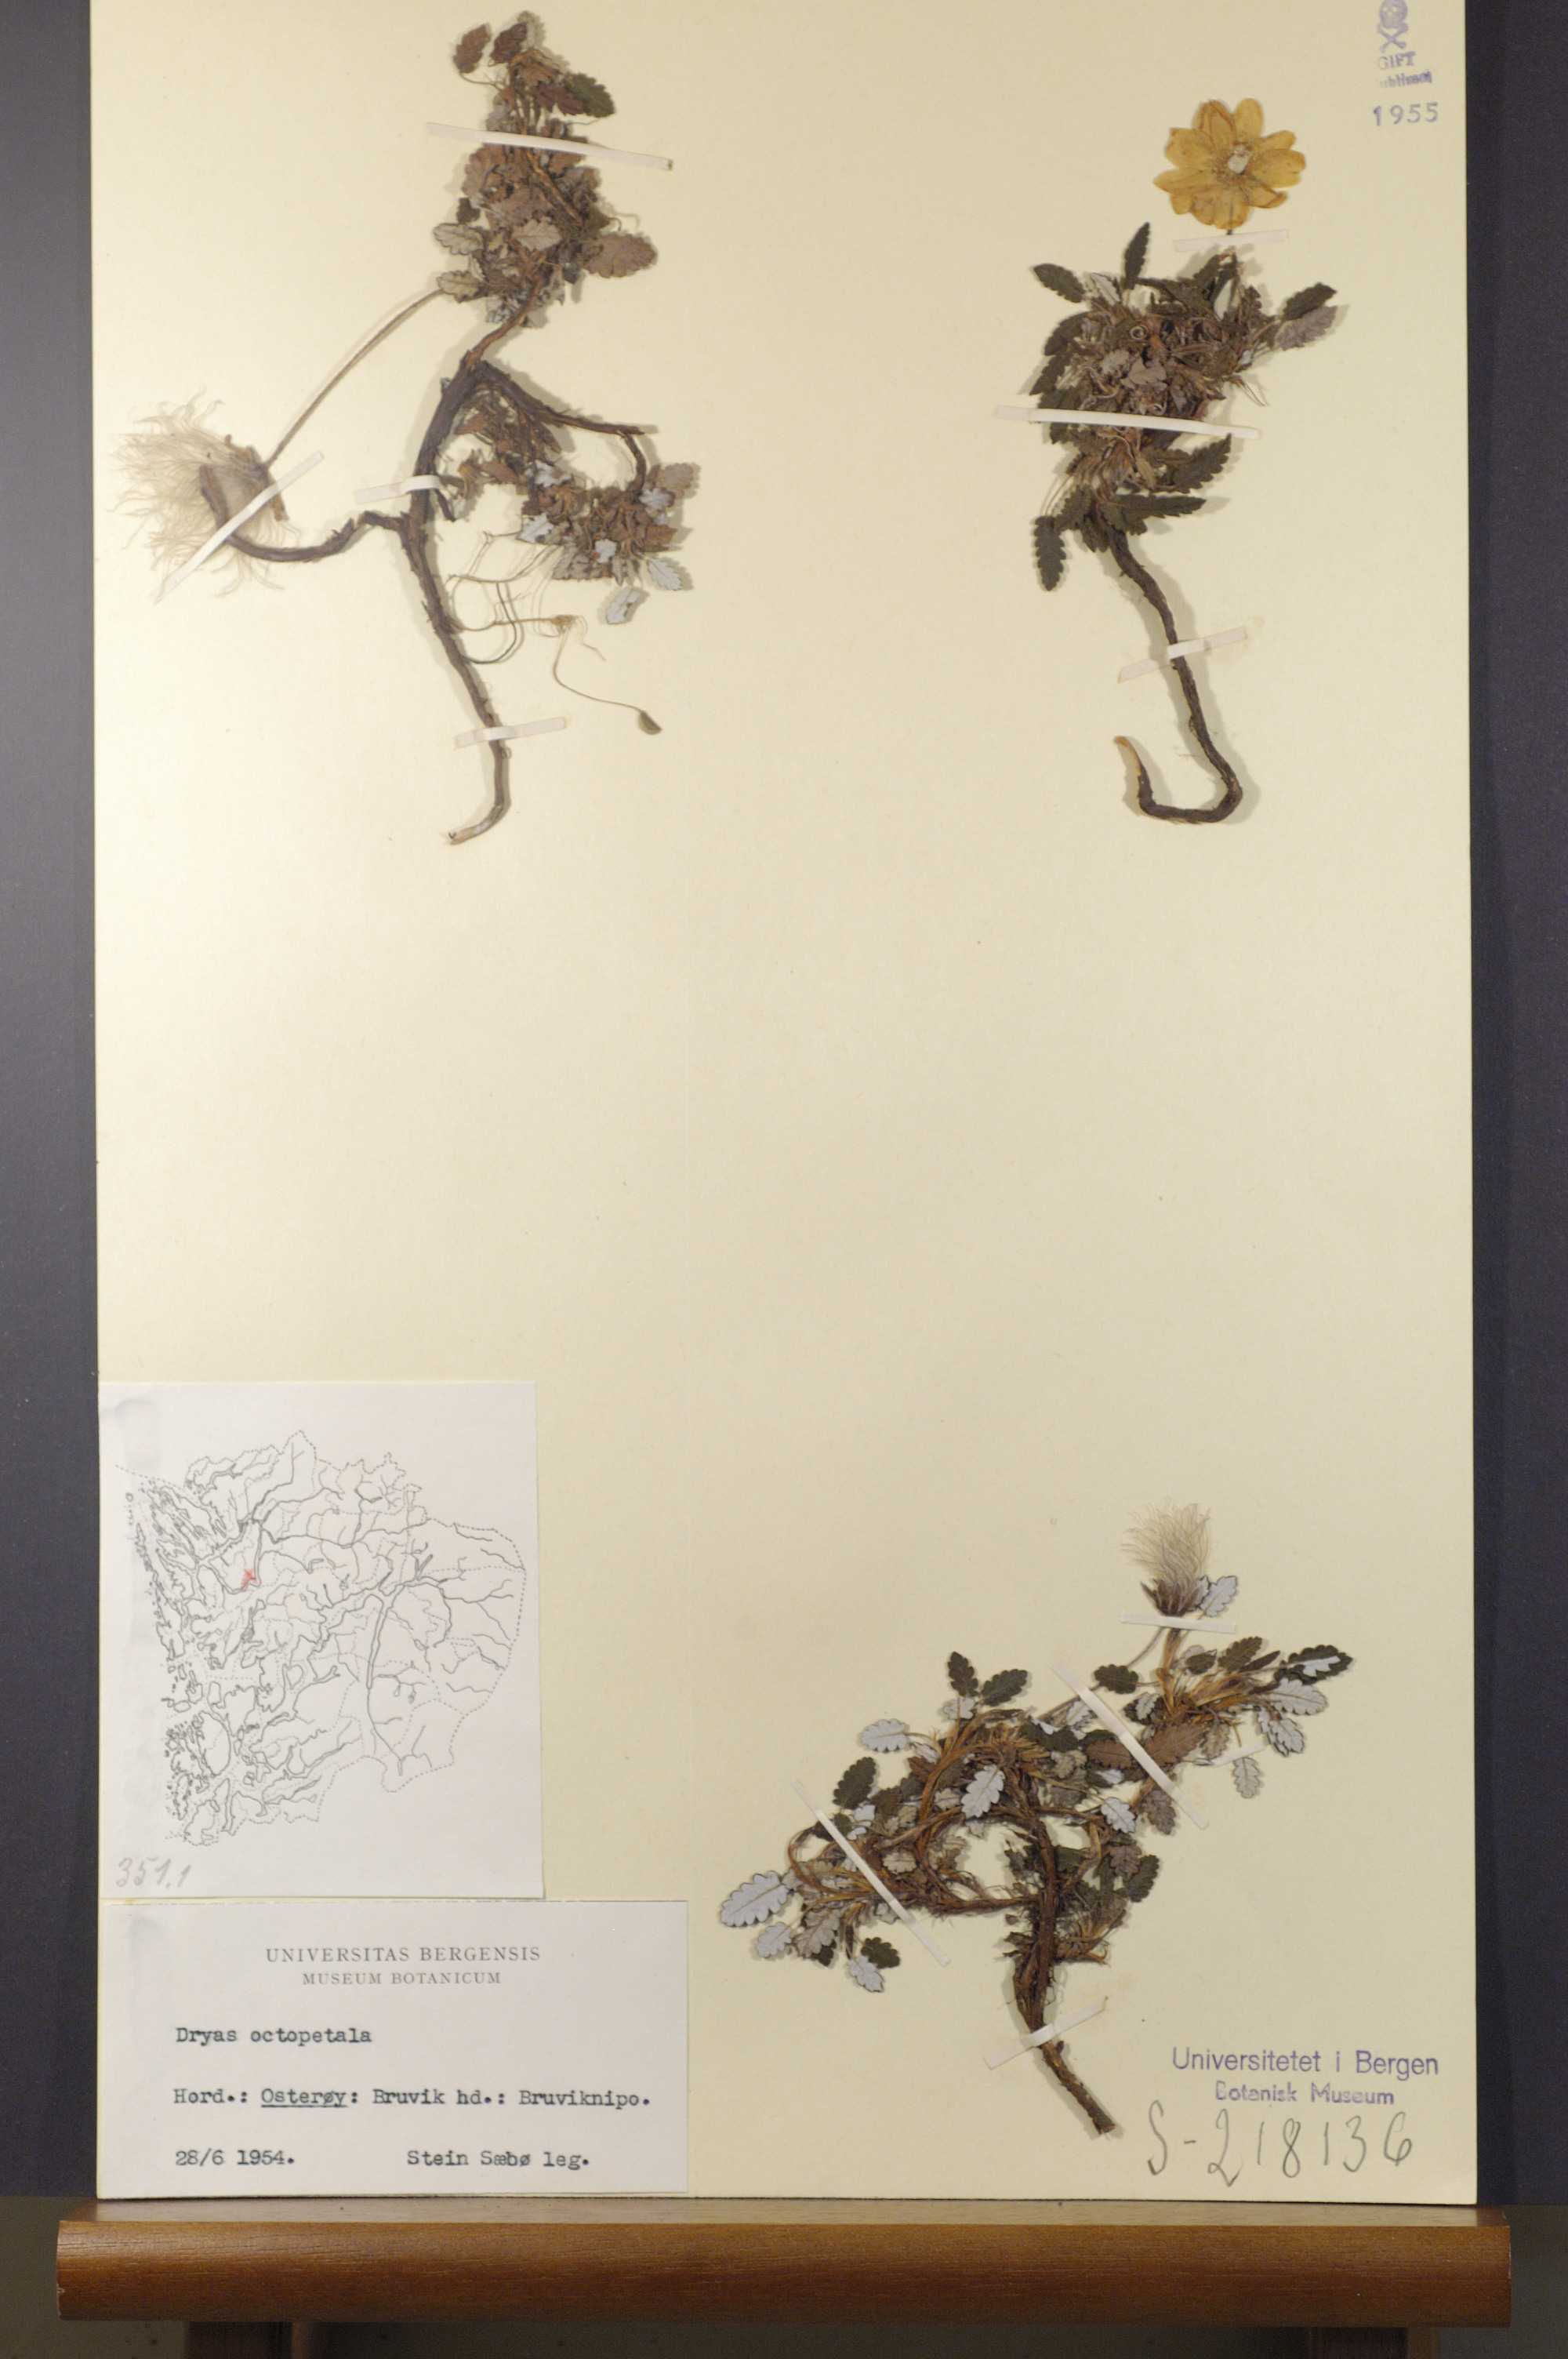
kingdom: Plantae
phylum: Tracheophyta
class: Magnoliopsida
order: Rosales
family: Rosaceae
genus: Dryas
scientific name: Dryas octopetala
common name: Eight-petal mountain-avens
